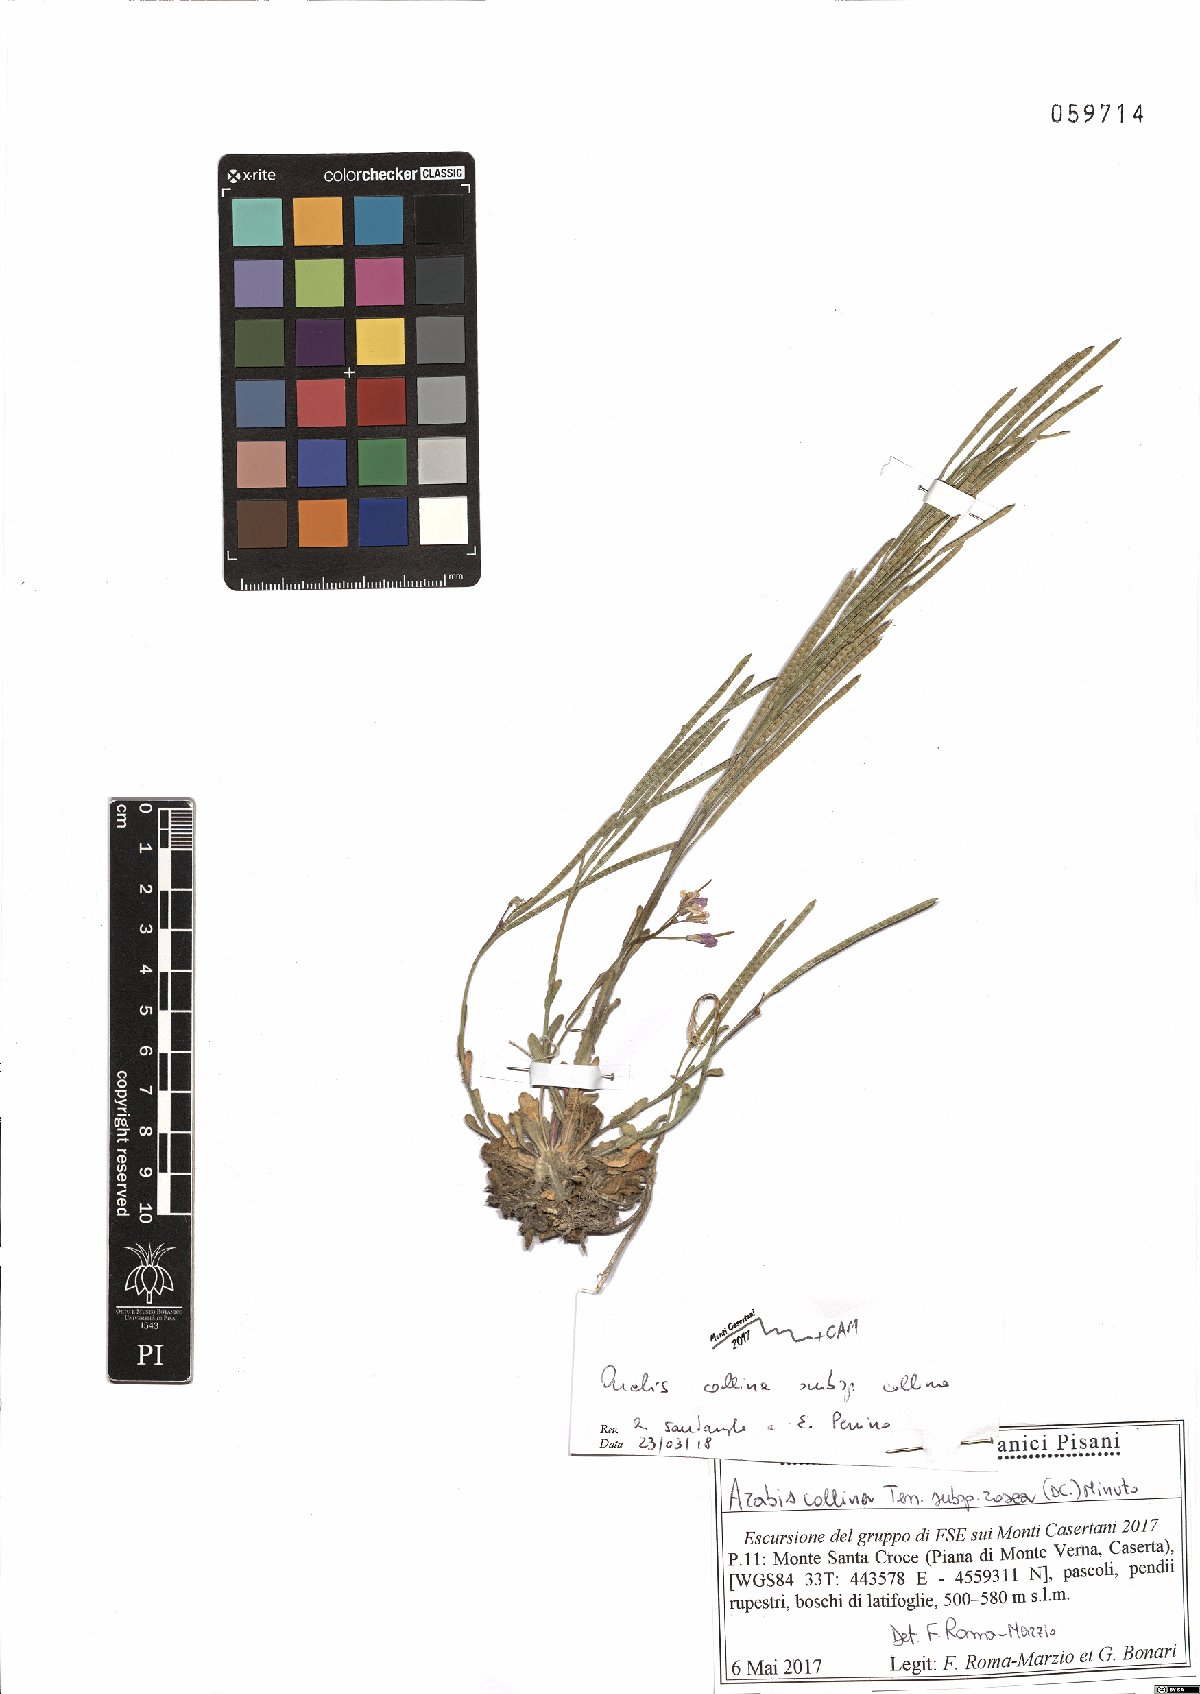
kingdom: Plantae
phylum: Tracheophyta
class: Magnoliopsida
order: Brassicales
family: Brassicaceae
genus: Arabis
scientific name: Arabis collina
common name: Rosy cress
